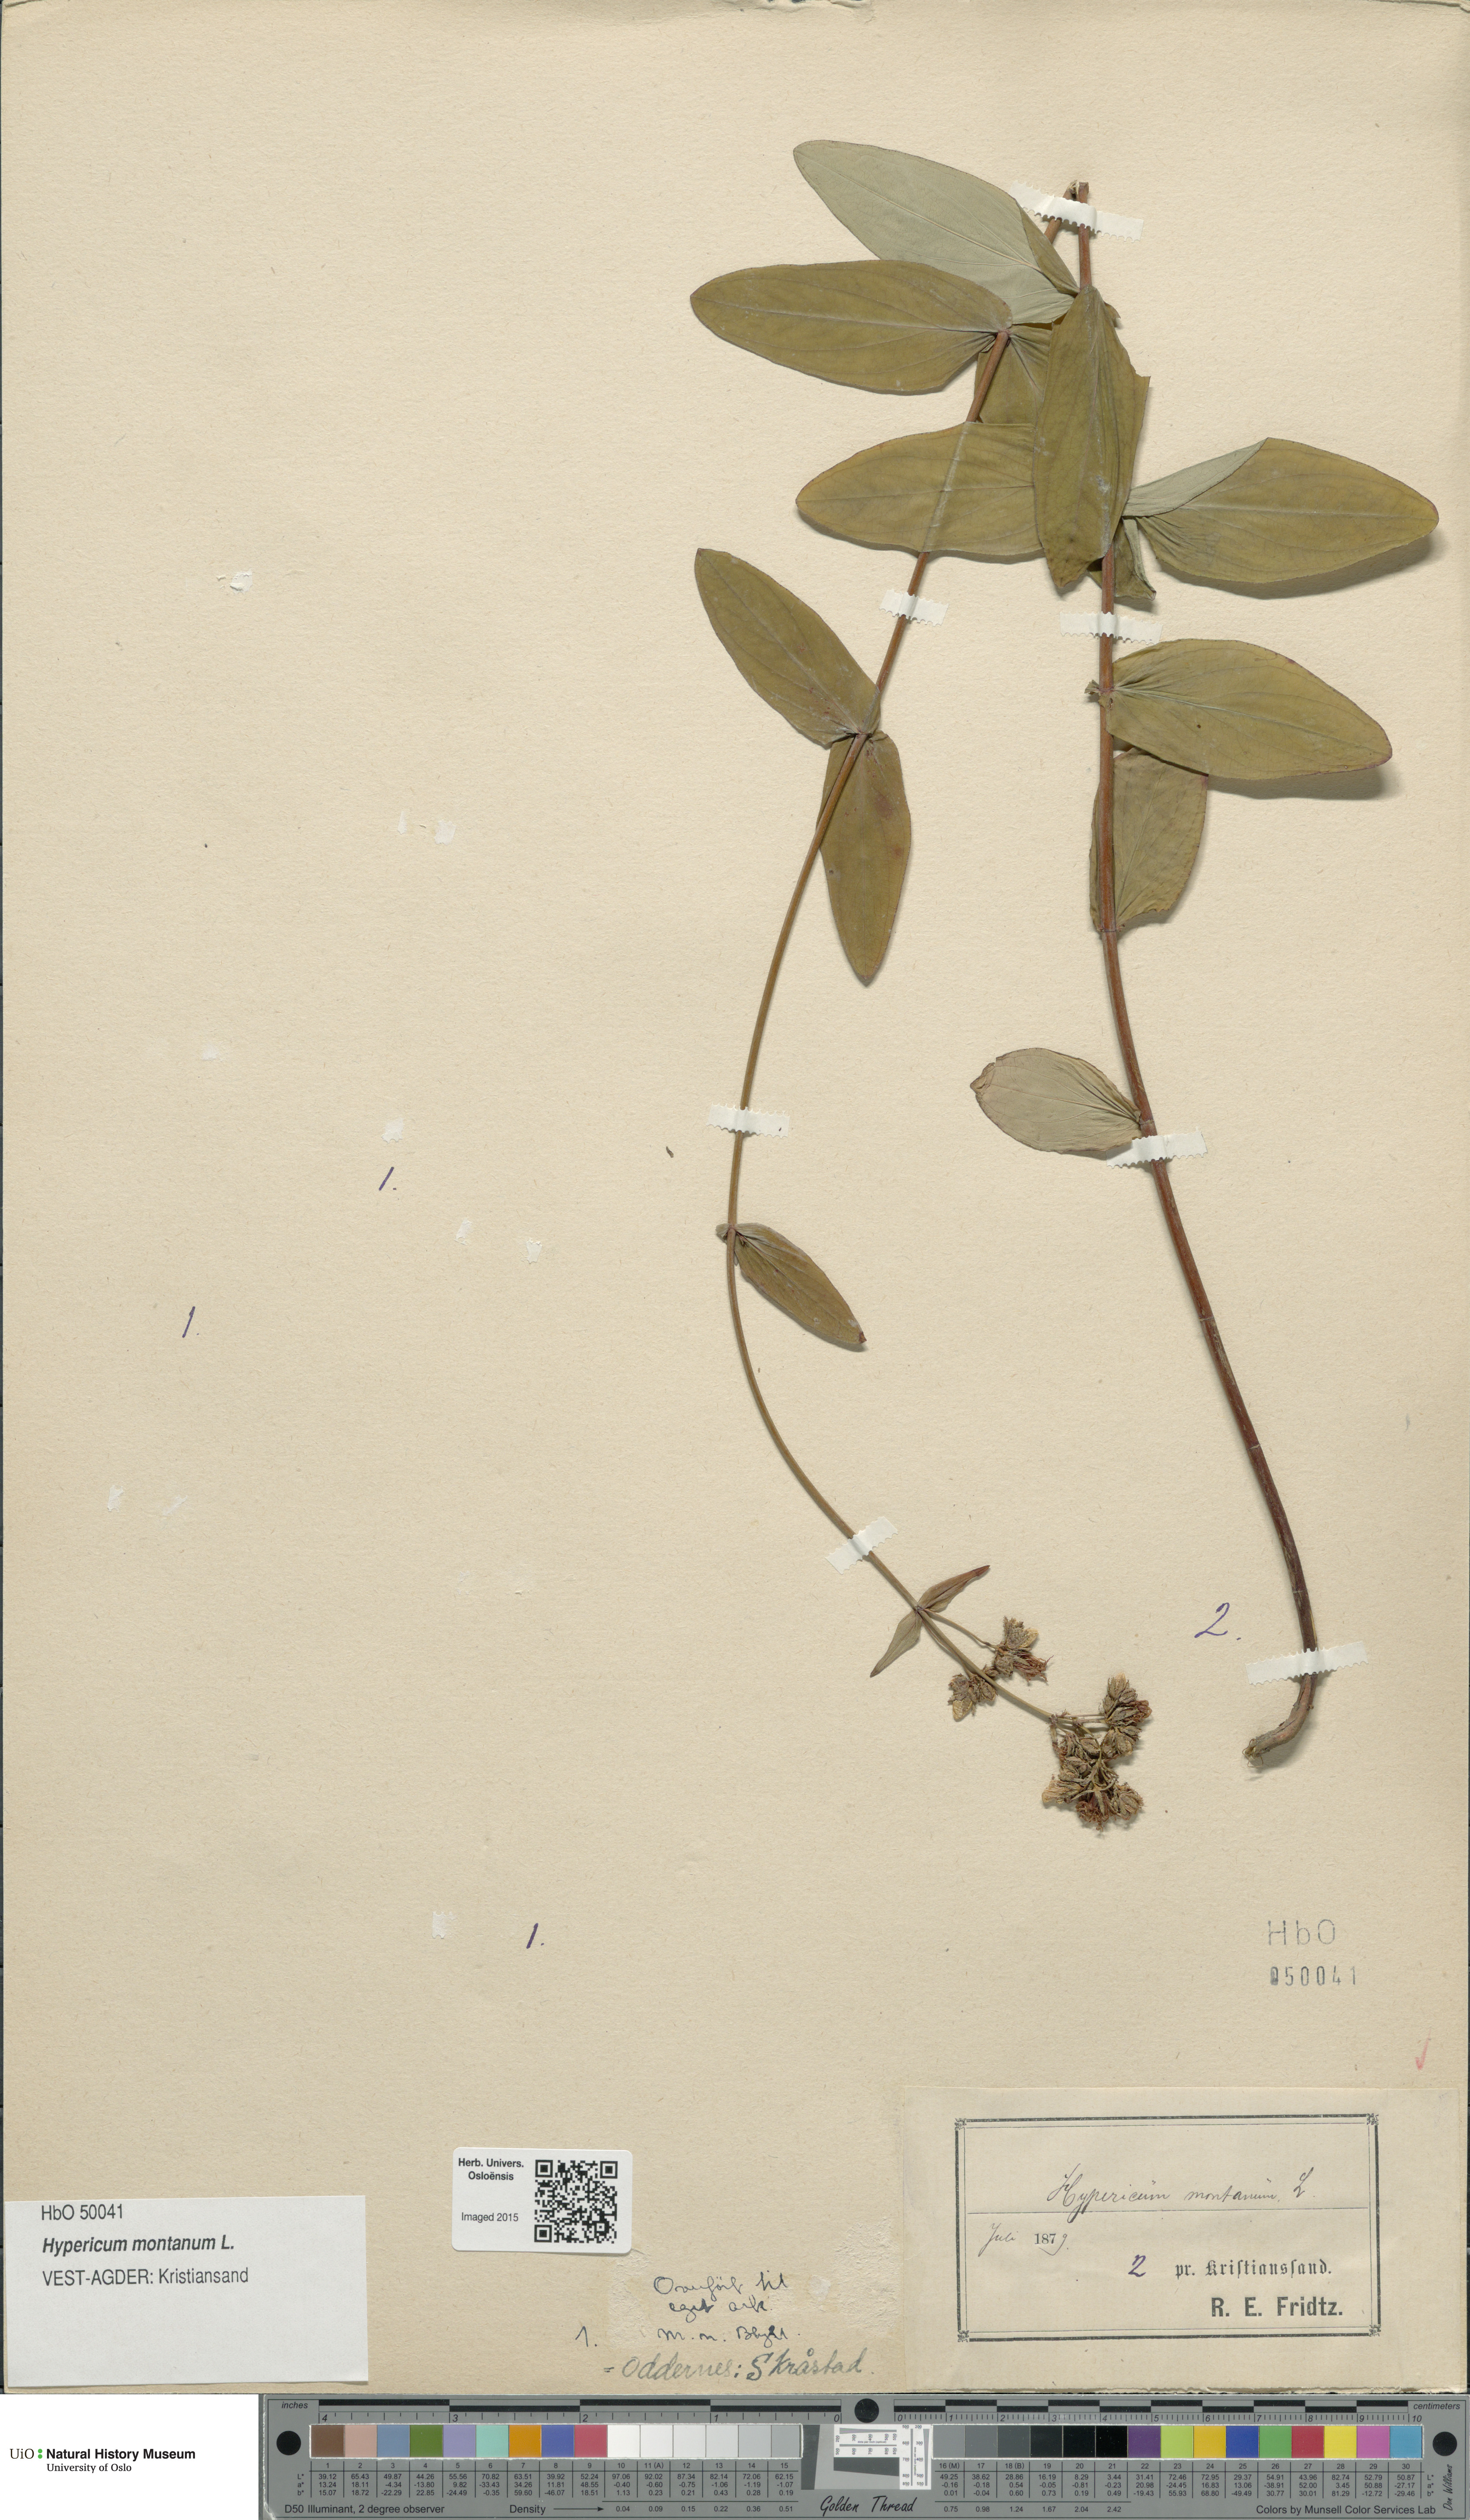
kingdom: Plantae
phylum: Tracheophyta
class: Magnoliopsida
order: Malpighiales
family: Hypericaceae
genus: Hypericum
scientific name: Hypericum montanum
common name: Pale st. john's-wort
